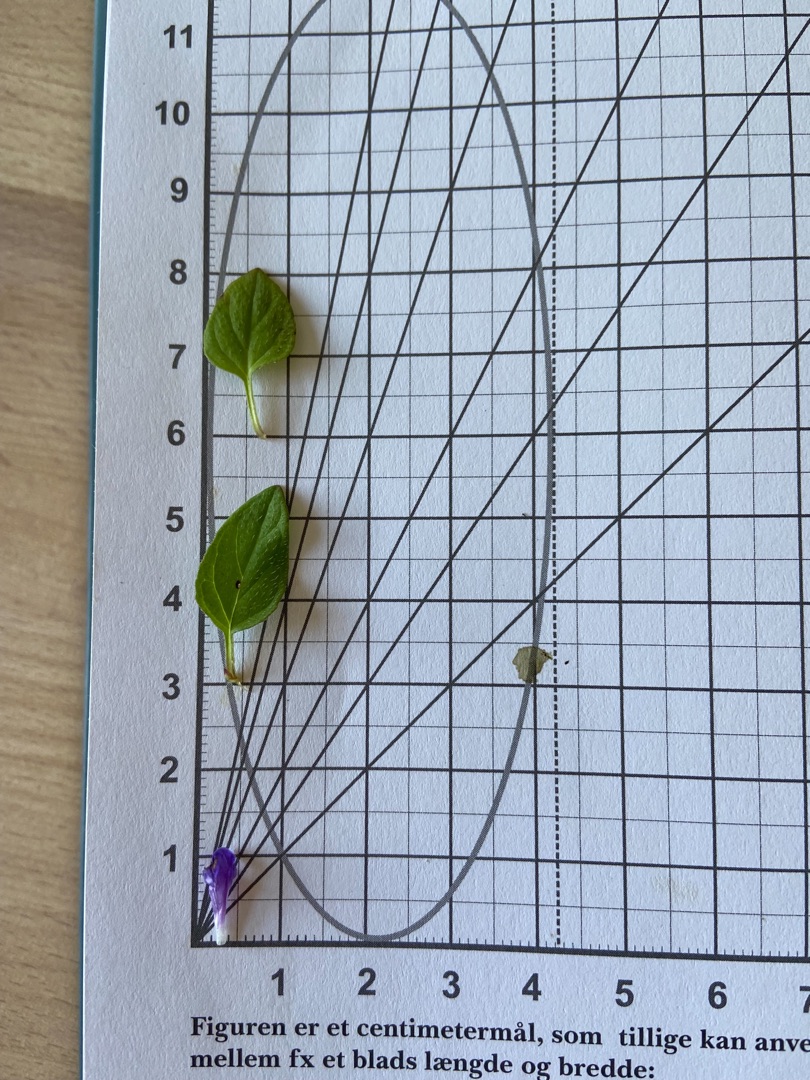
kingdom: Plantae
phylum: Tracheophyta
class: Magnoliopsida
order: Lamiales
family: Lamiaceae
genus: Prunella
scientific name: Prunella vulgaris
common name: Almindelig brunelle
